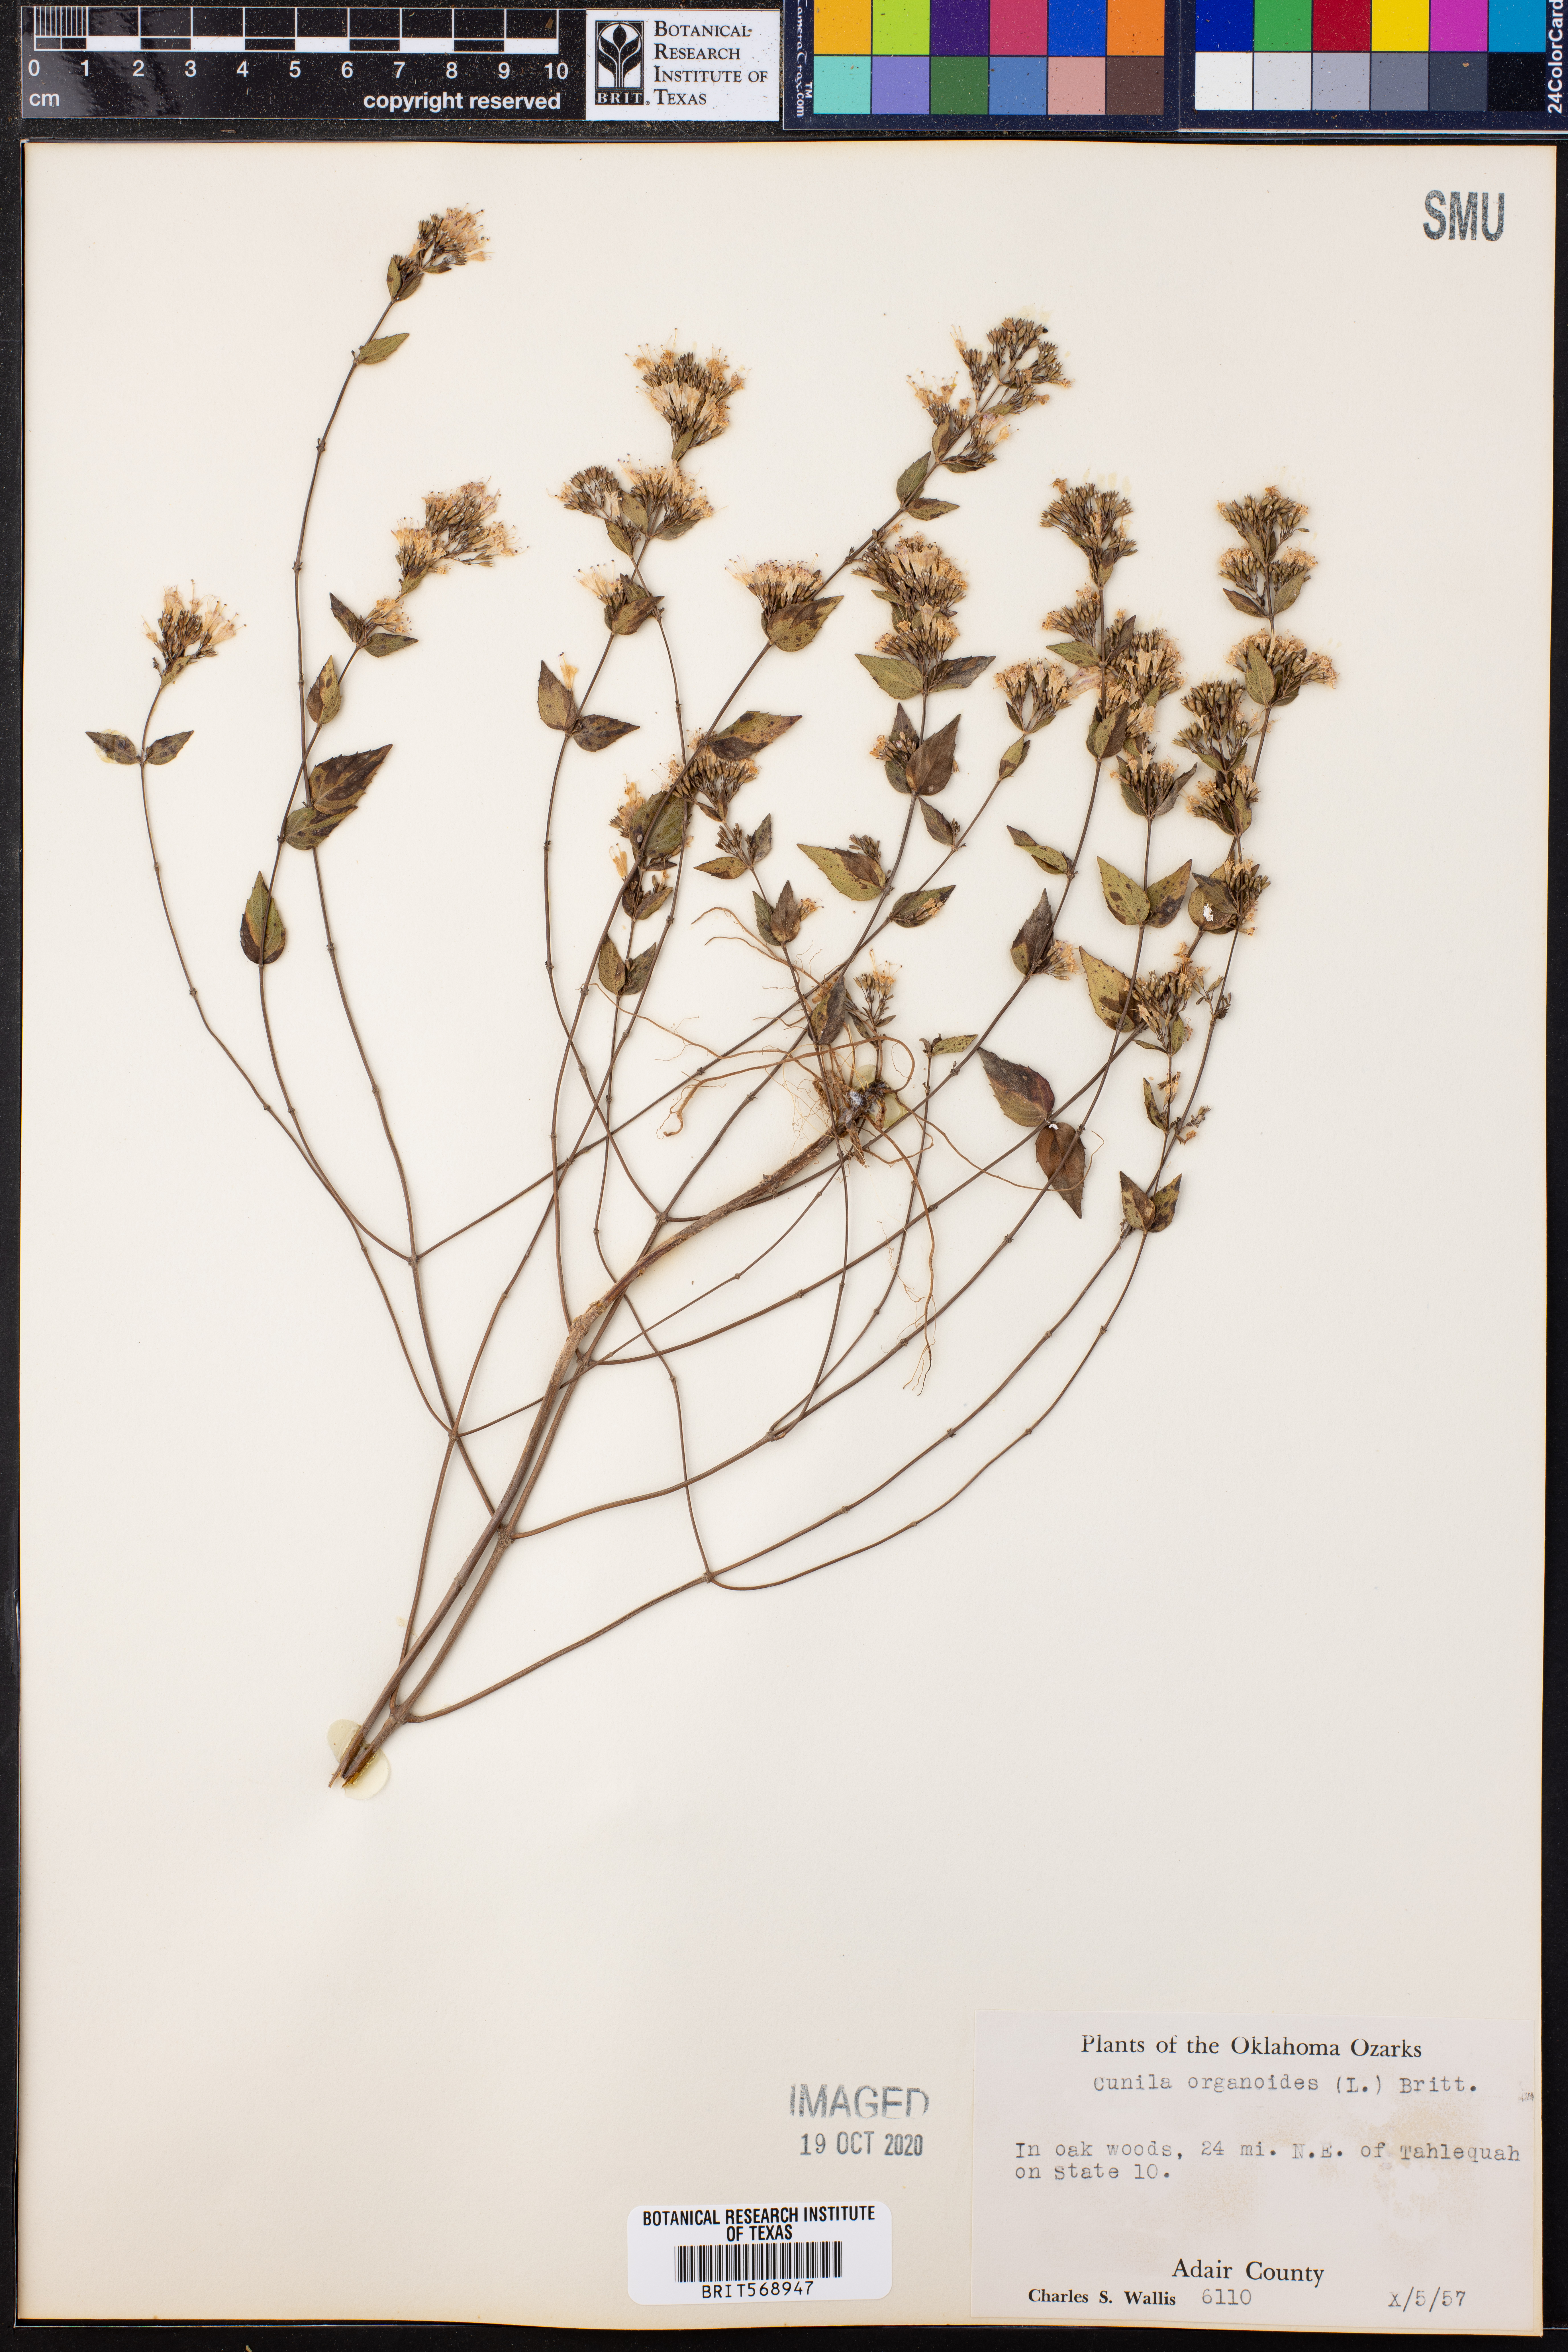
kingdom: Plantae
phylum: Tracheophyta
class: Magnoliopsida
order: Lamiales
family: Lamiaceae
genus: Cunila
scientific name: Cunila origanoides
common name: American dittany
